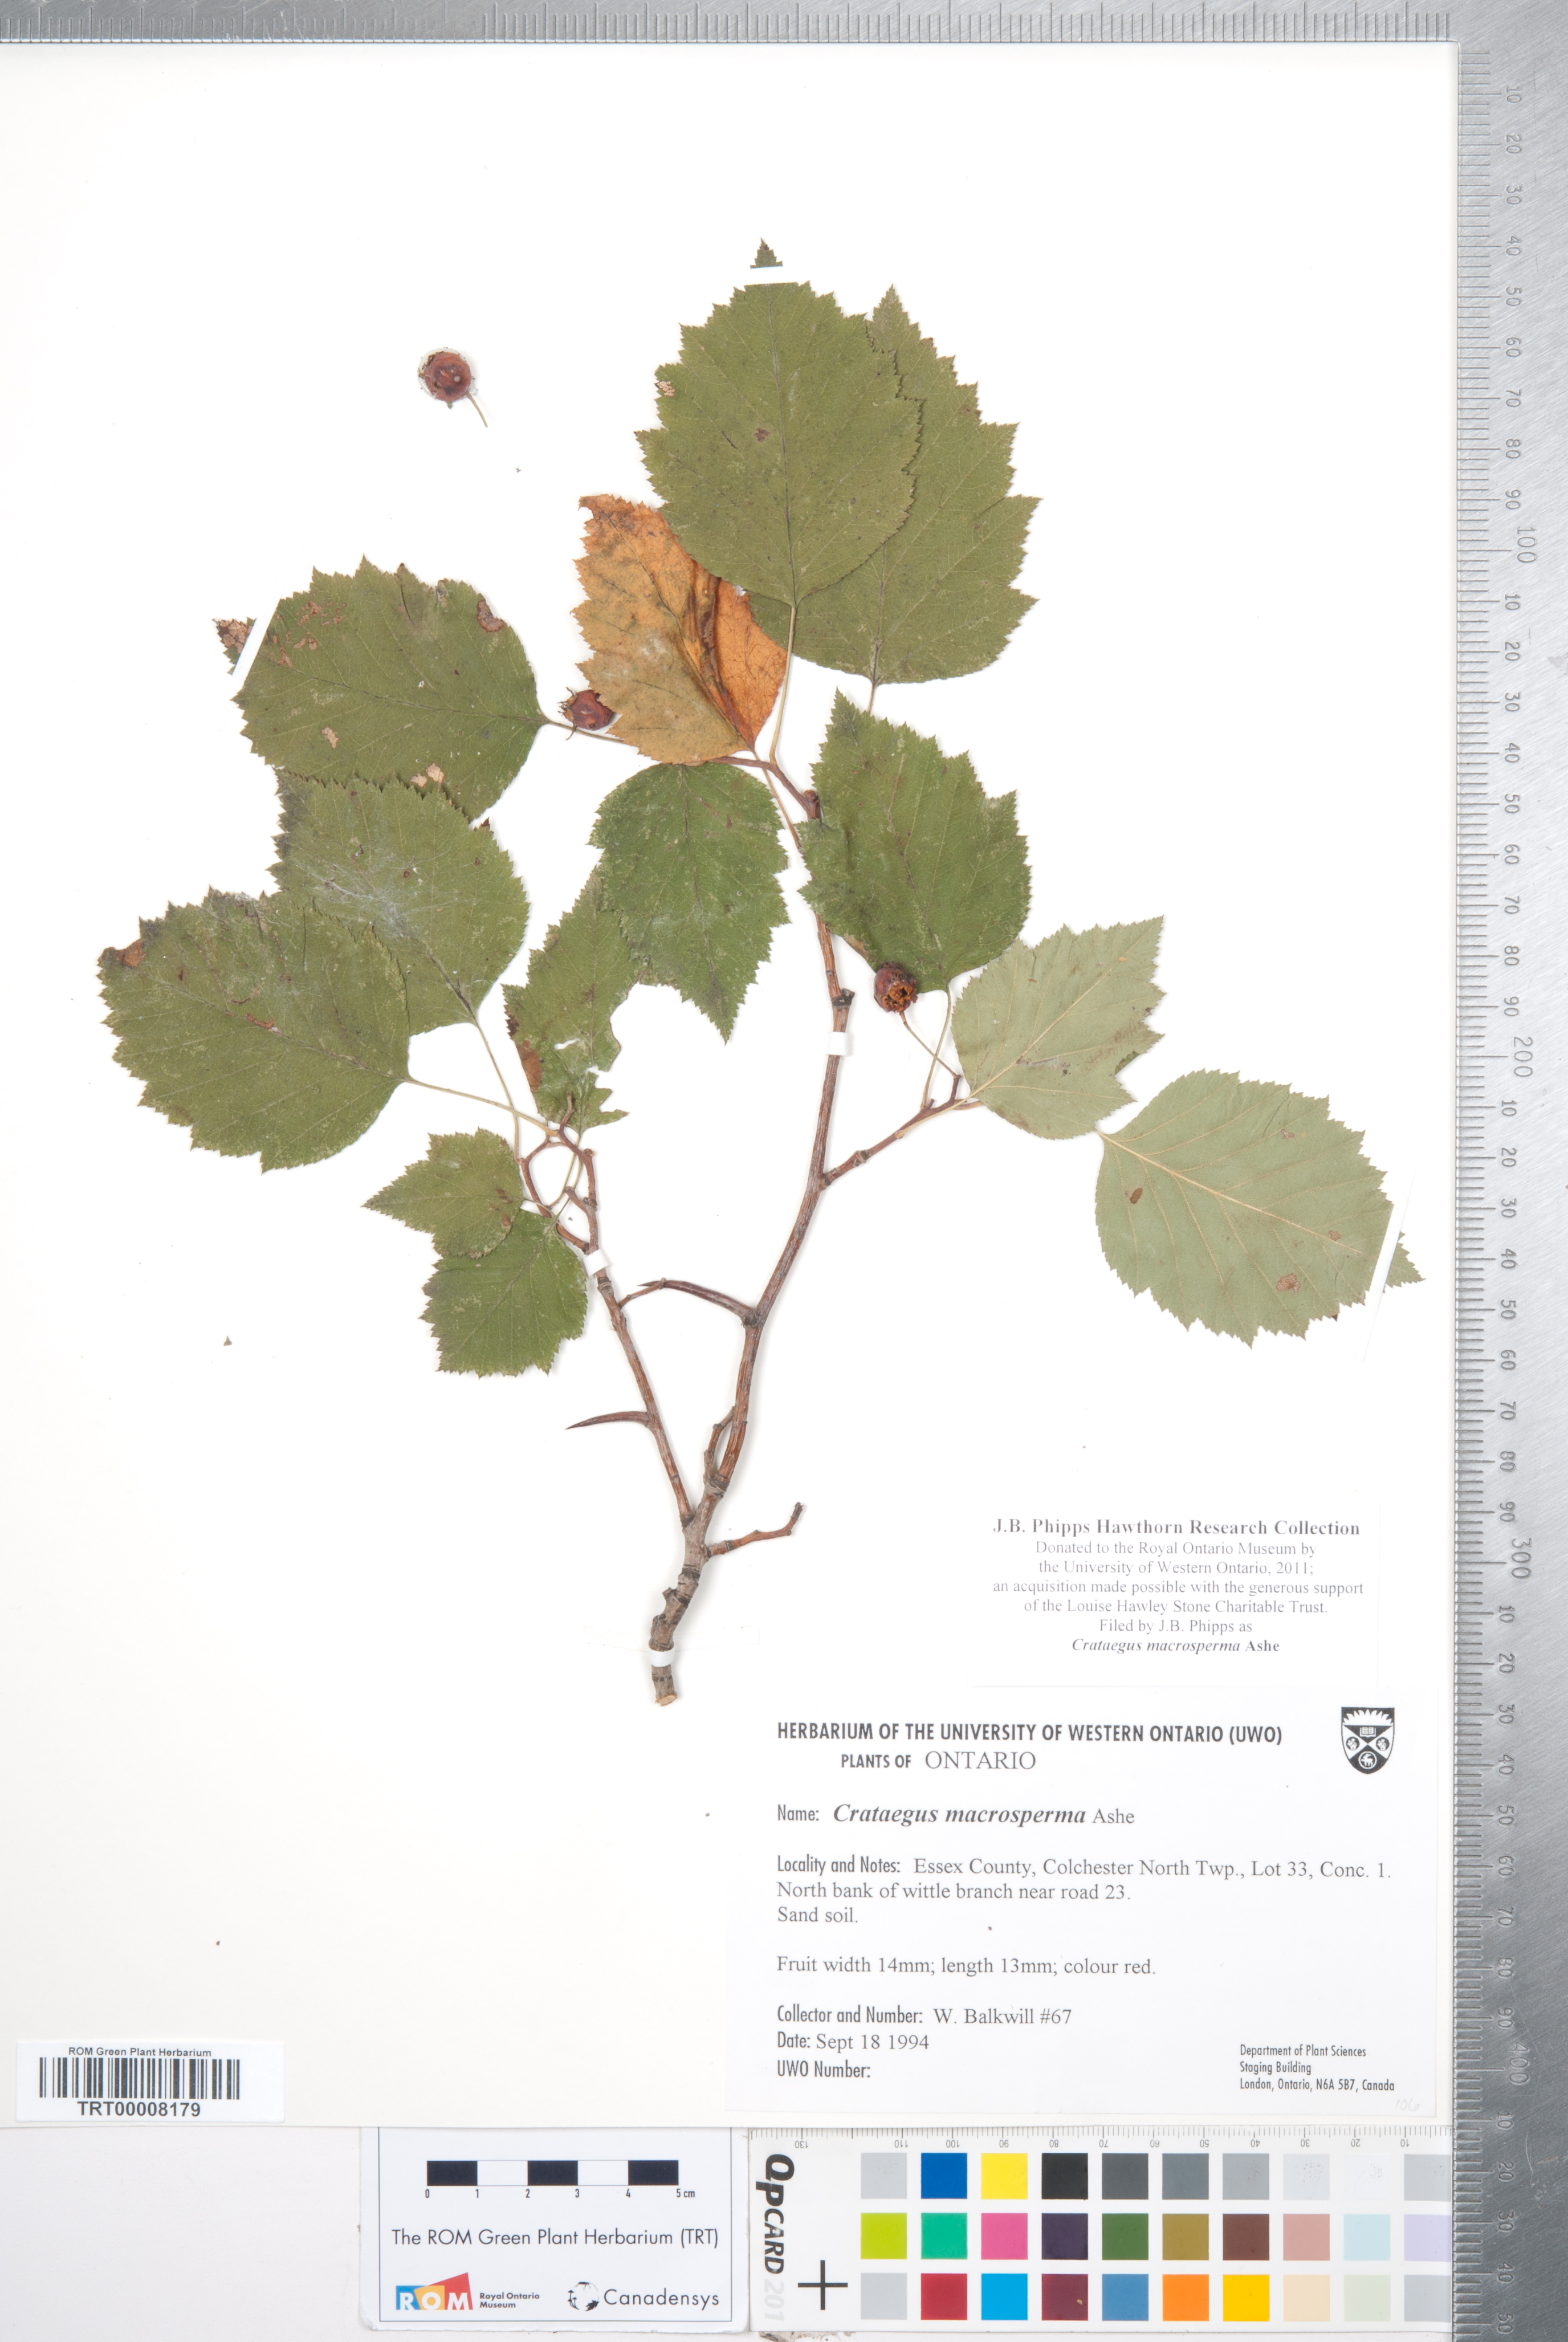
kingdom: Plantae
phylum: Tracheophyta
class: Magnoliopsida
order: Rosales
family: Rosaceae
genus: Crataegus
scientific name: Crataegus macrosperma
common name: Variable hawthorn
